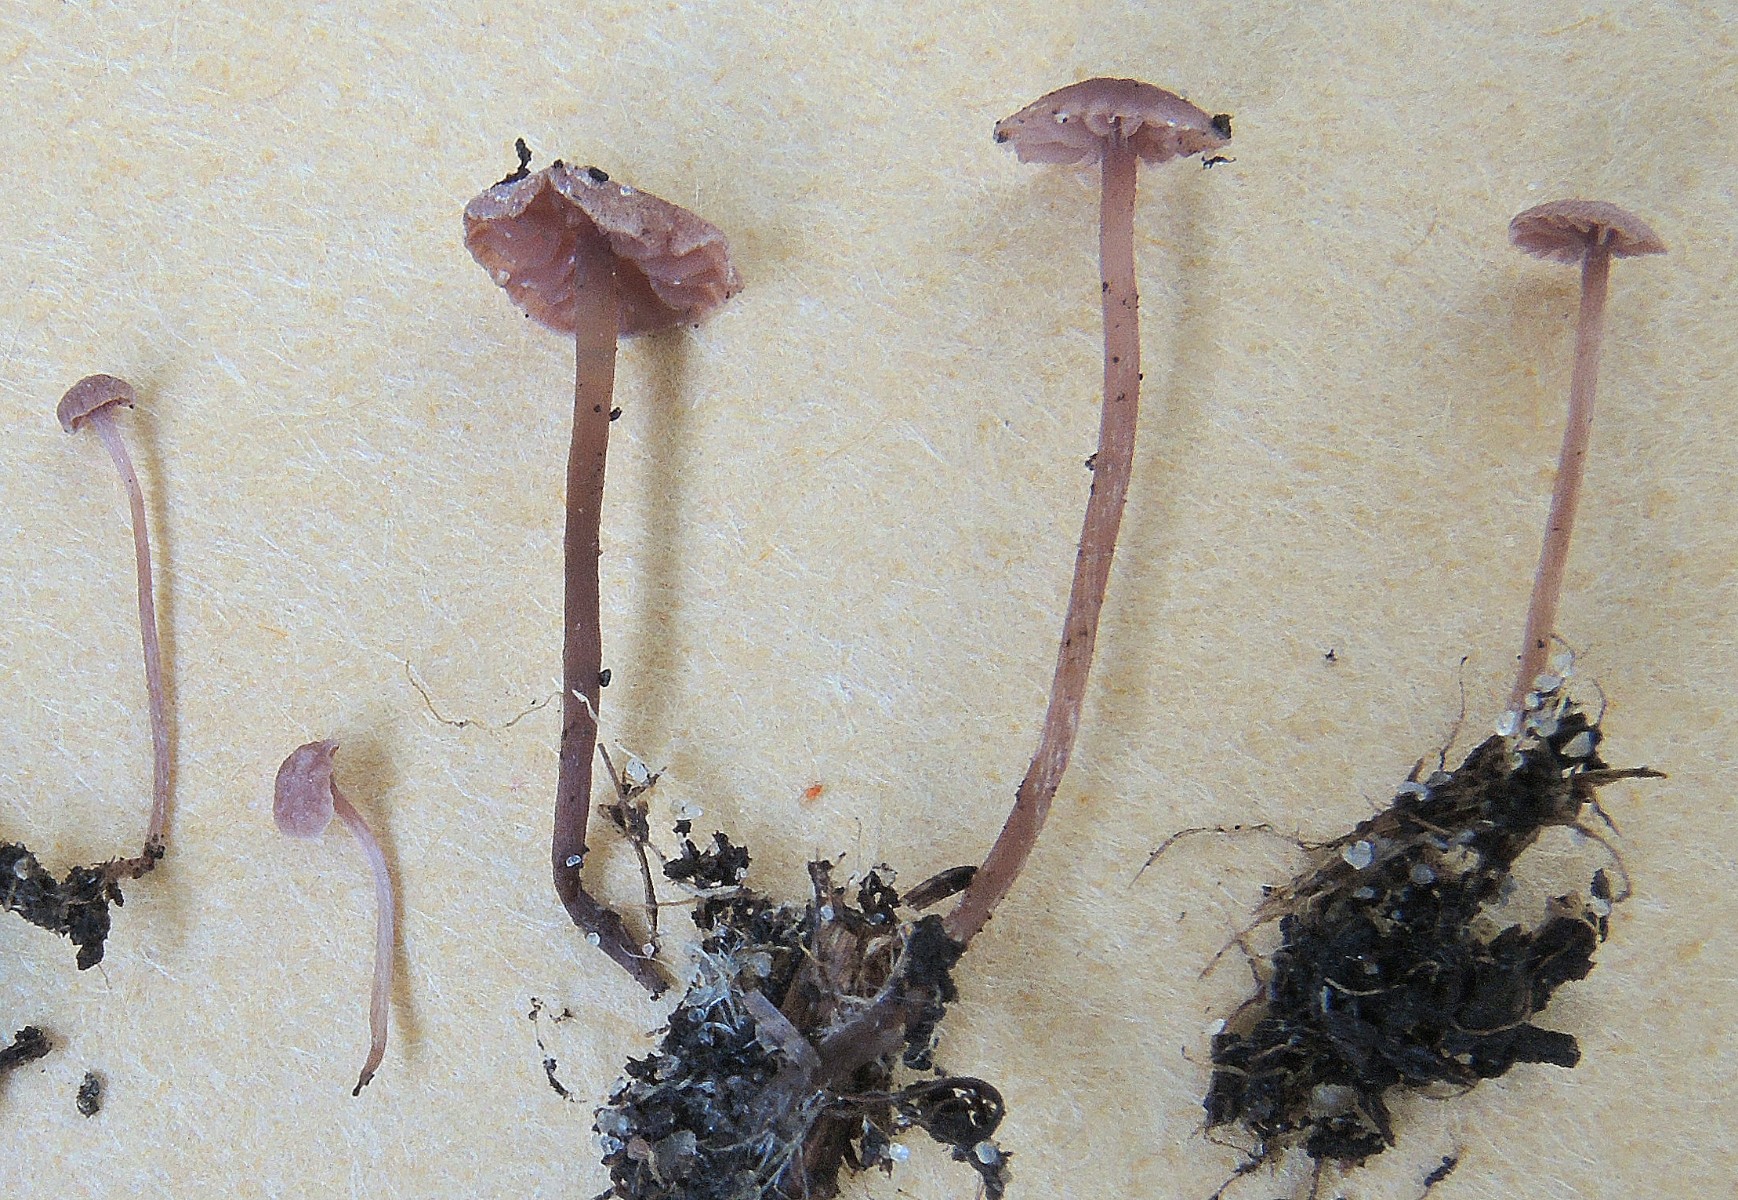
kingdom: Fungi
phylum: Basidiomycota
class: Agaricomycetes
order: Agaricales
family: Tricholomataceae
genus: Pseudobaeospora
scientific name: Pseudobaeospora celluloderma
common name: ametyst-røghat
